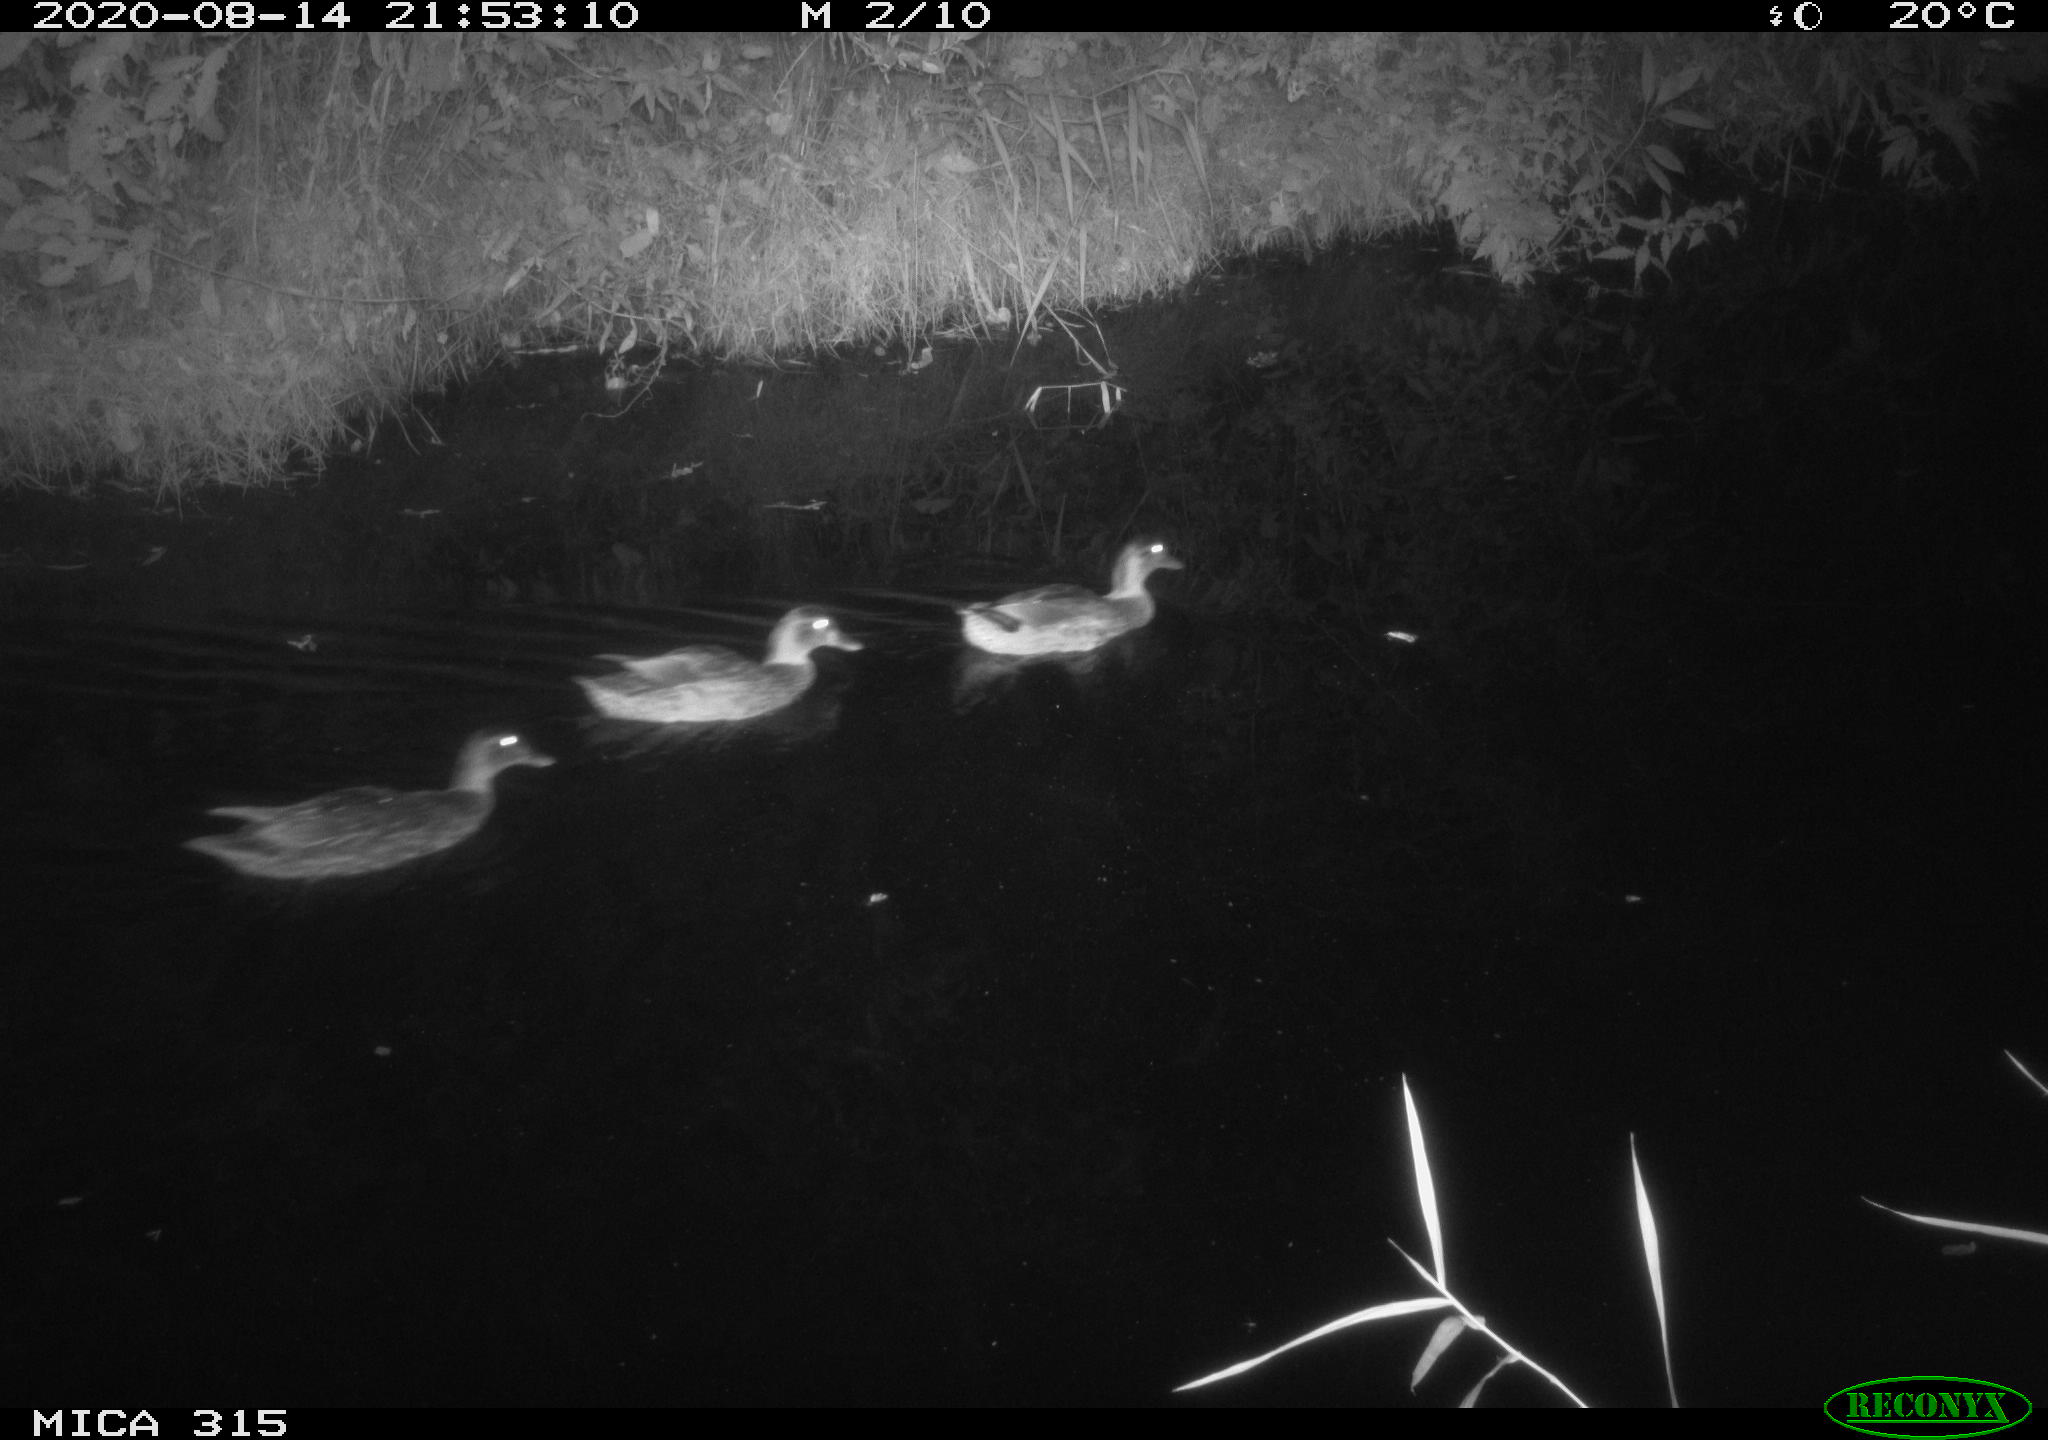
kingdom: Animalia
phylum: Chordata
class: Aves
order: Anseriformes
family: Anatidae
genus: Anas
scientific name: Anas platyrhynchos
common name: Mallard
